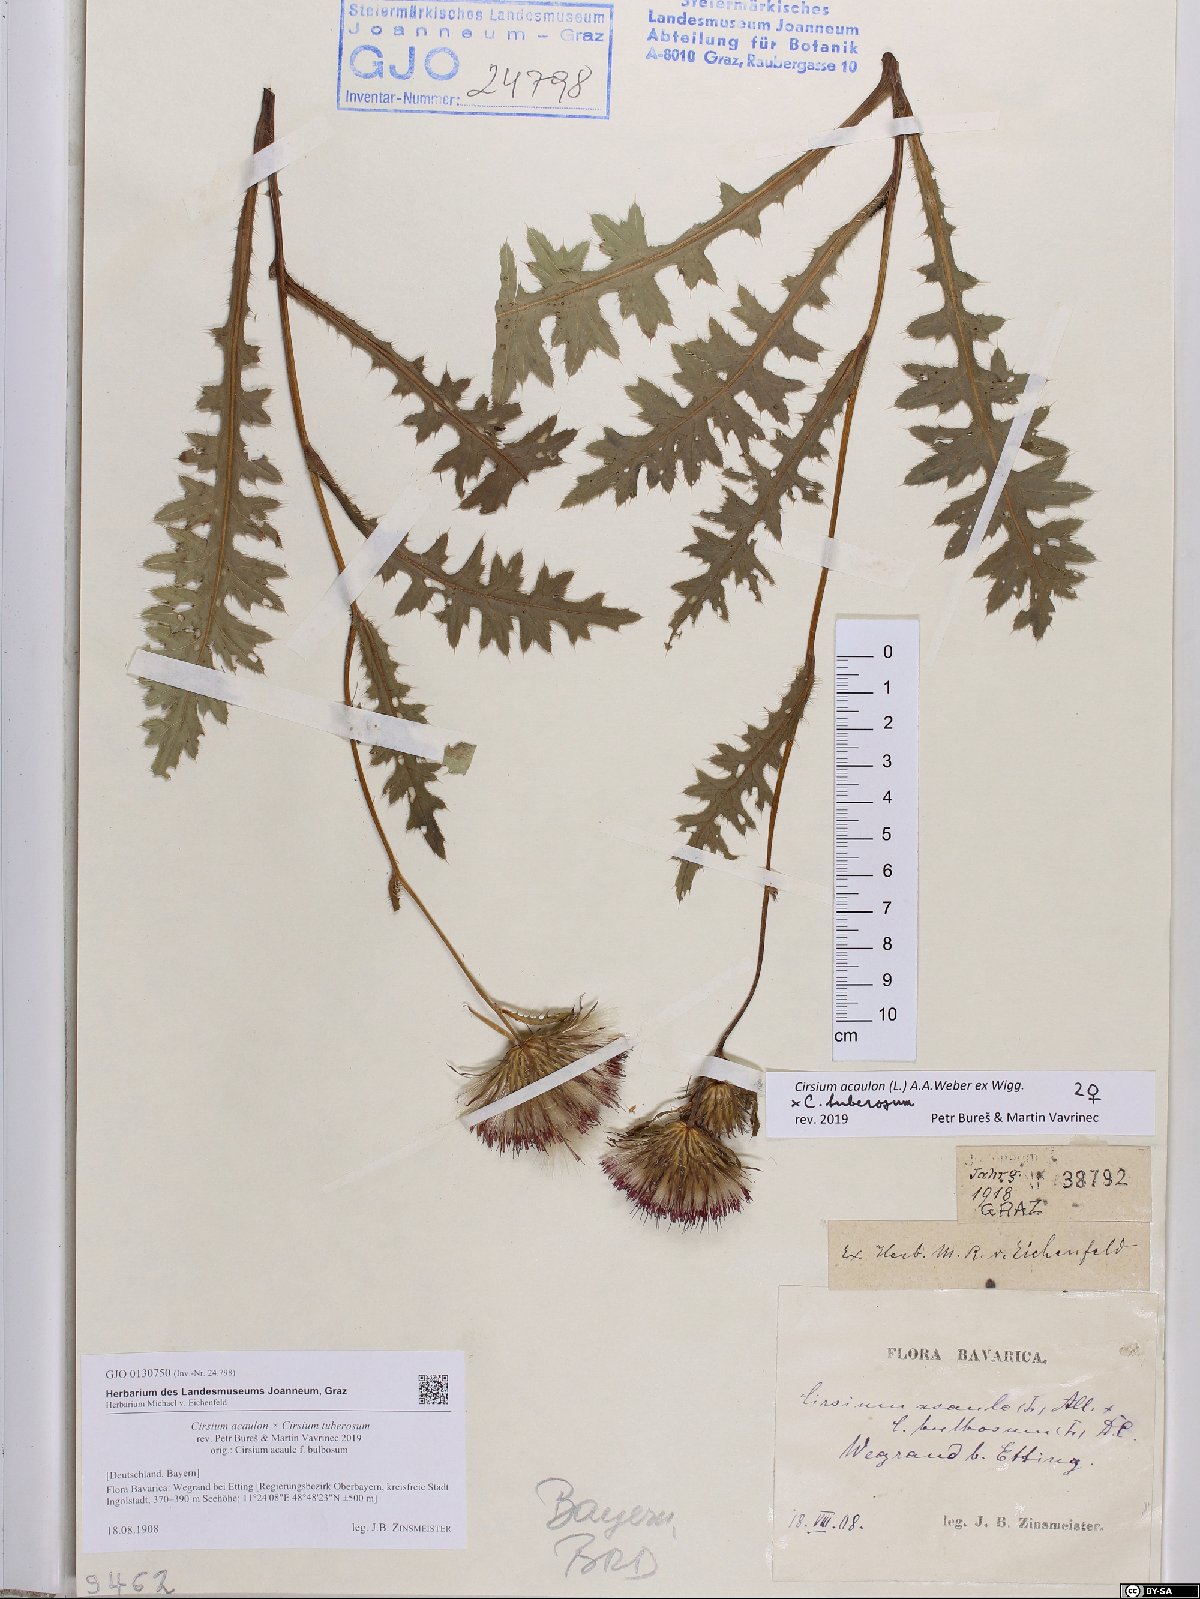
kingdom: Plantae
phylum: Tracheophyta
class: Magnoliopsida
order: Asterales
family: Asteraceae
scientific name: Asteraceae
